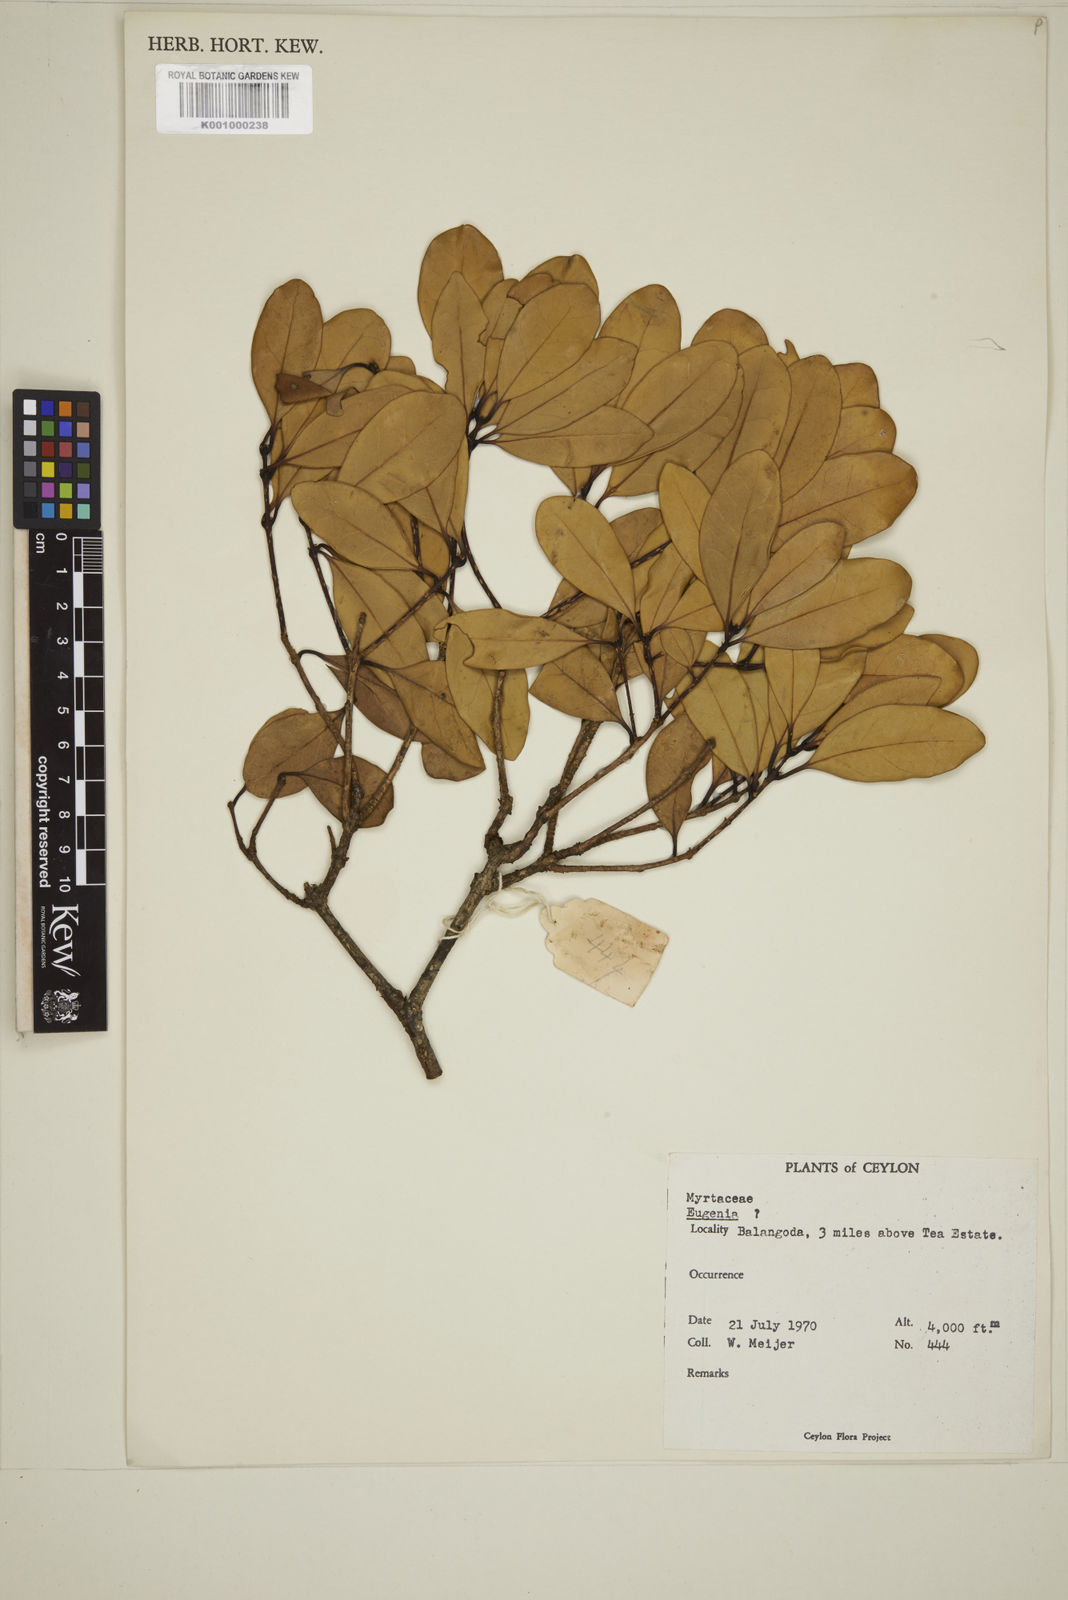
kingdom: Plantae
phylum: Tracheophyta
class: Magnoliopsida
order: Myrtales
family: Myrtaceae
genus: Eugenia
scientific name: Eugenia
